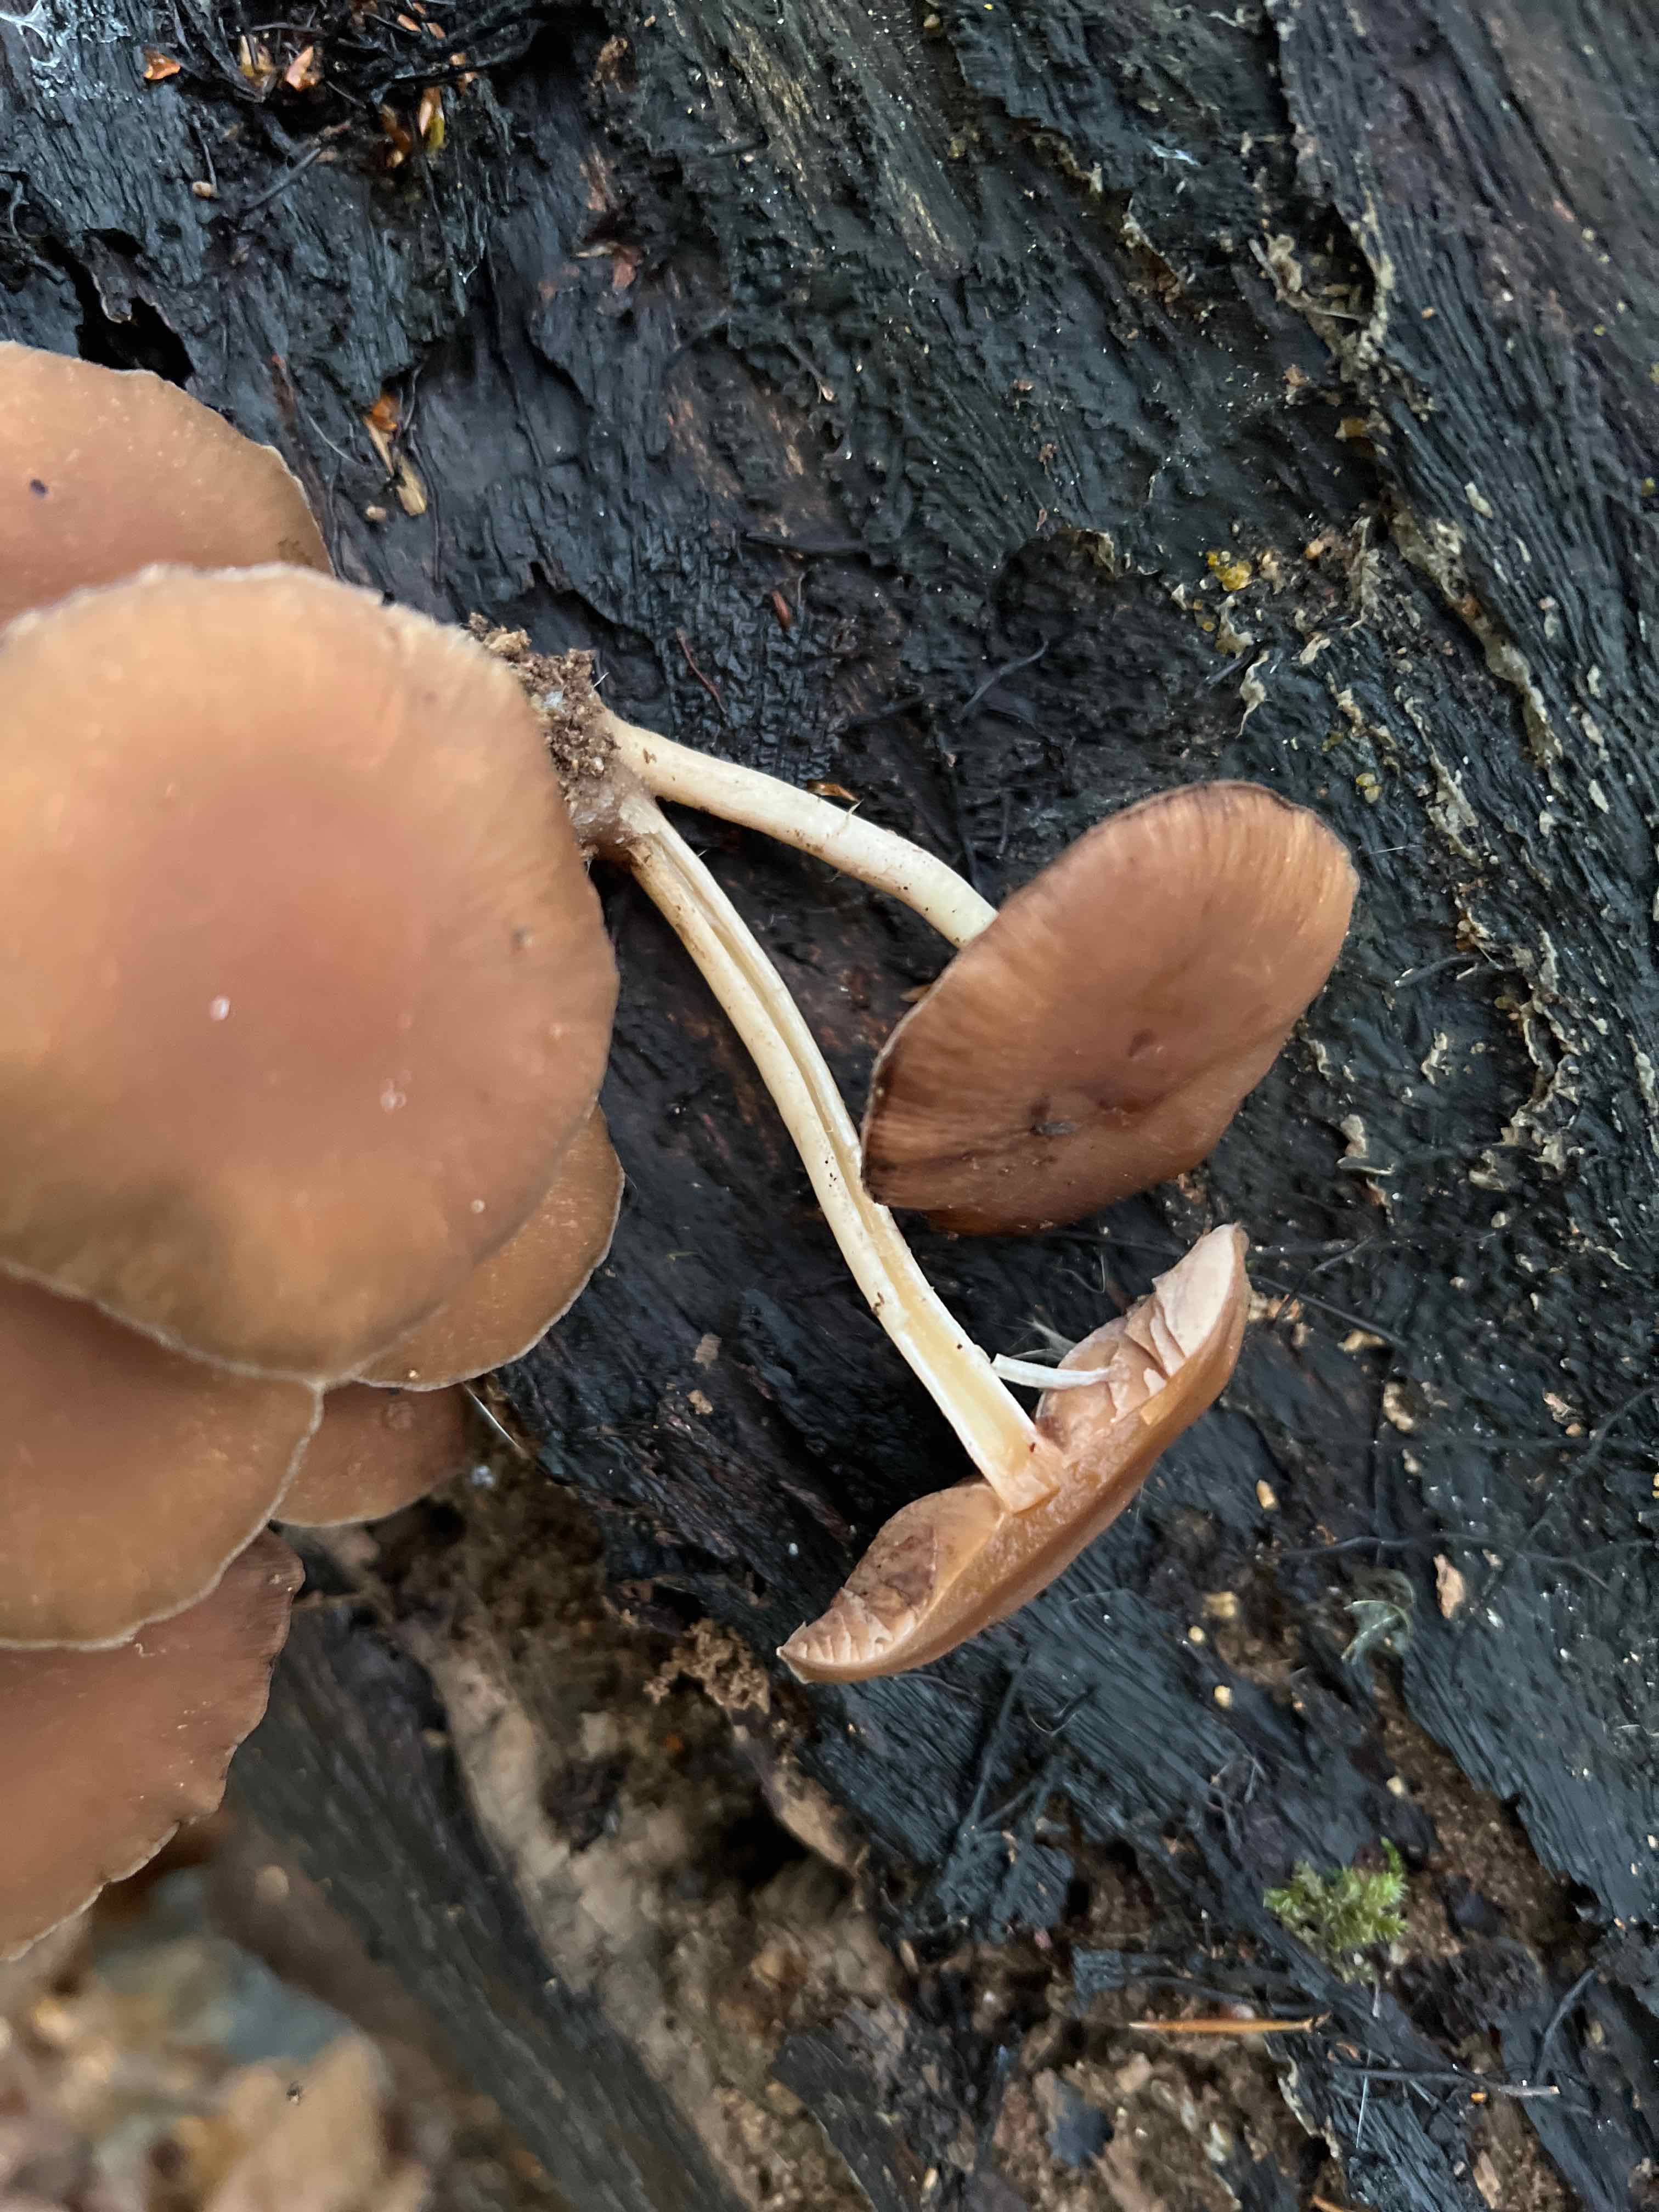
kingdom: Fungi
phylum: Basidiomycota
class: Agaricomycetes
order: Agaricales
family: Psathyrellaceae
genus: Psathyrella
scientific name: Psathyrella piluliformis
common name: lysstokket mørkhat
